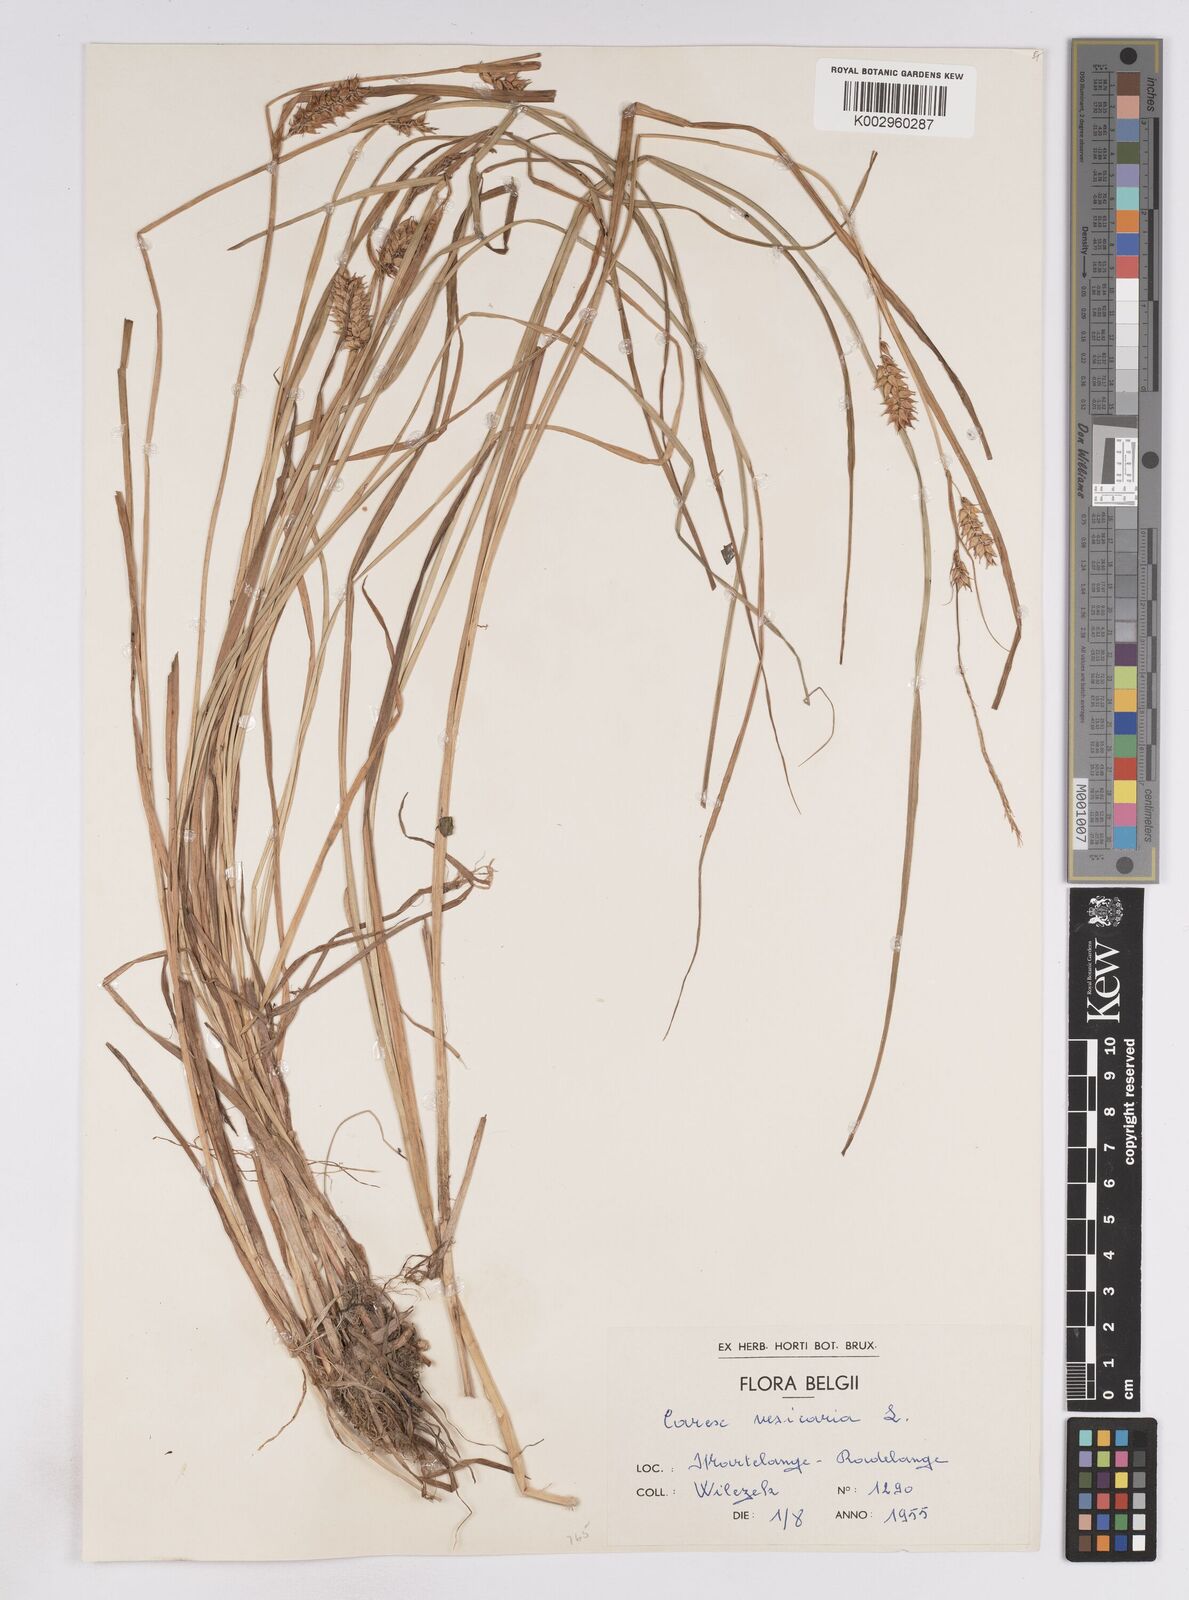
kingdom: Plantae
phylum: Tracheophyta
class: Liliopsida
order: Poales
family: Cyperaceae
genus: Carex
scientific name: Carex vesicaria
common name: Bladder-sedge
